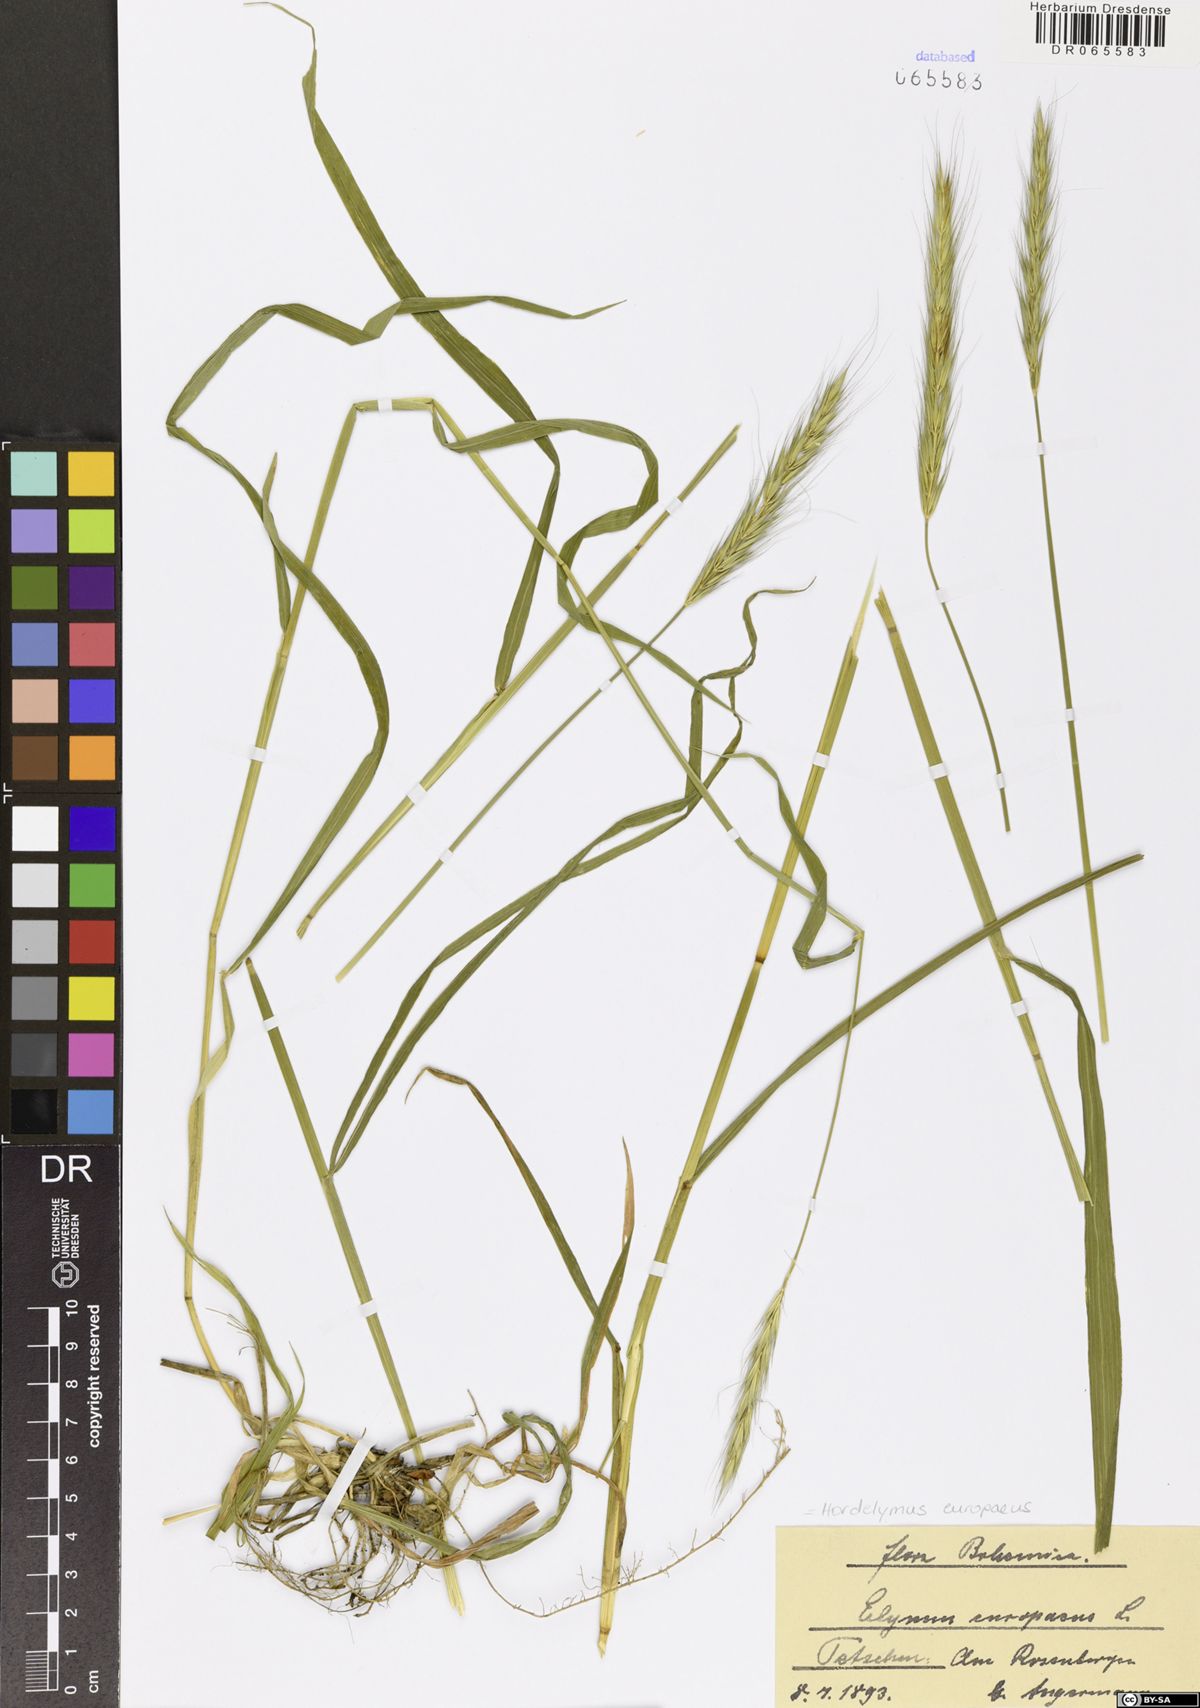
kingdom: Plantae
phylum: Tracheophyta
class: Liliopsida
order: Poales
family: Poaceae
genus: Hordelymus
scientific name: Hordelymus europaeus
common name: Wood-barley
